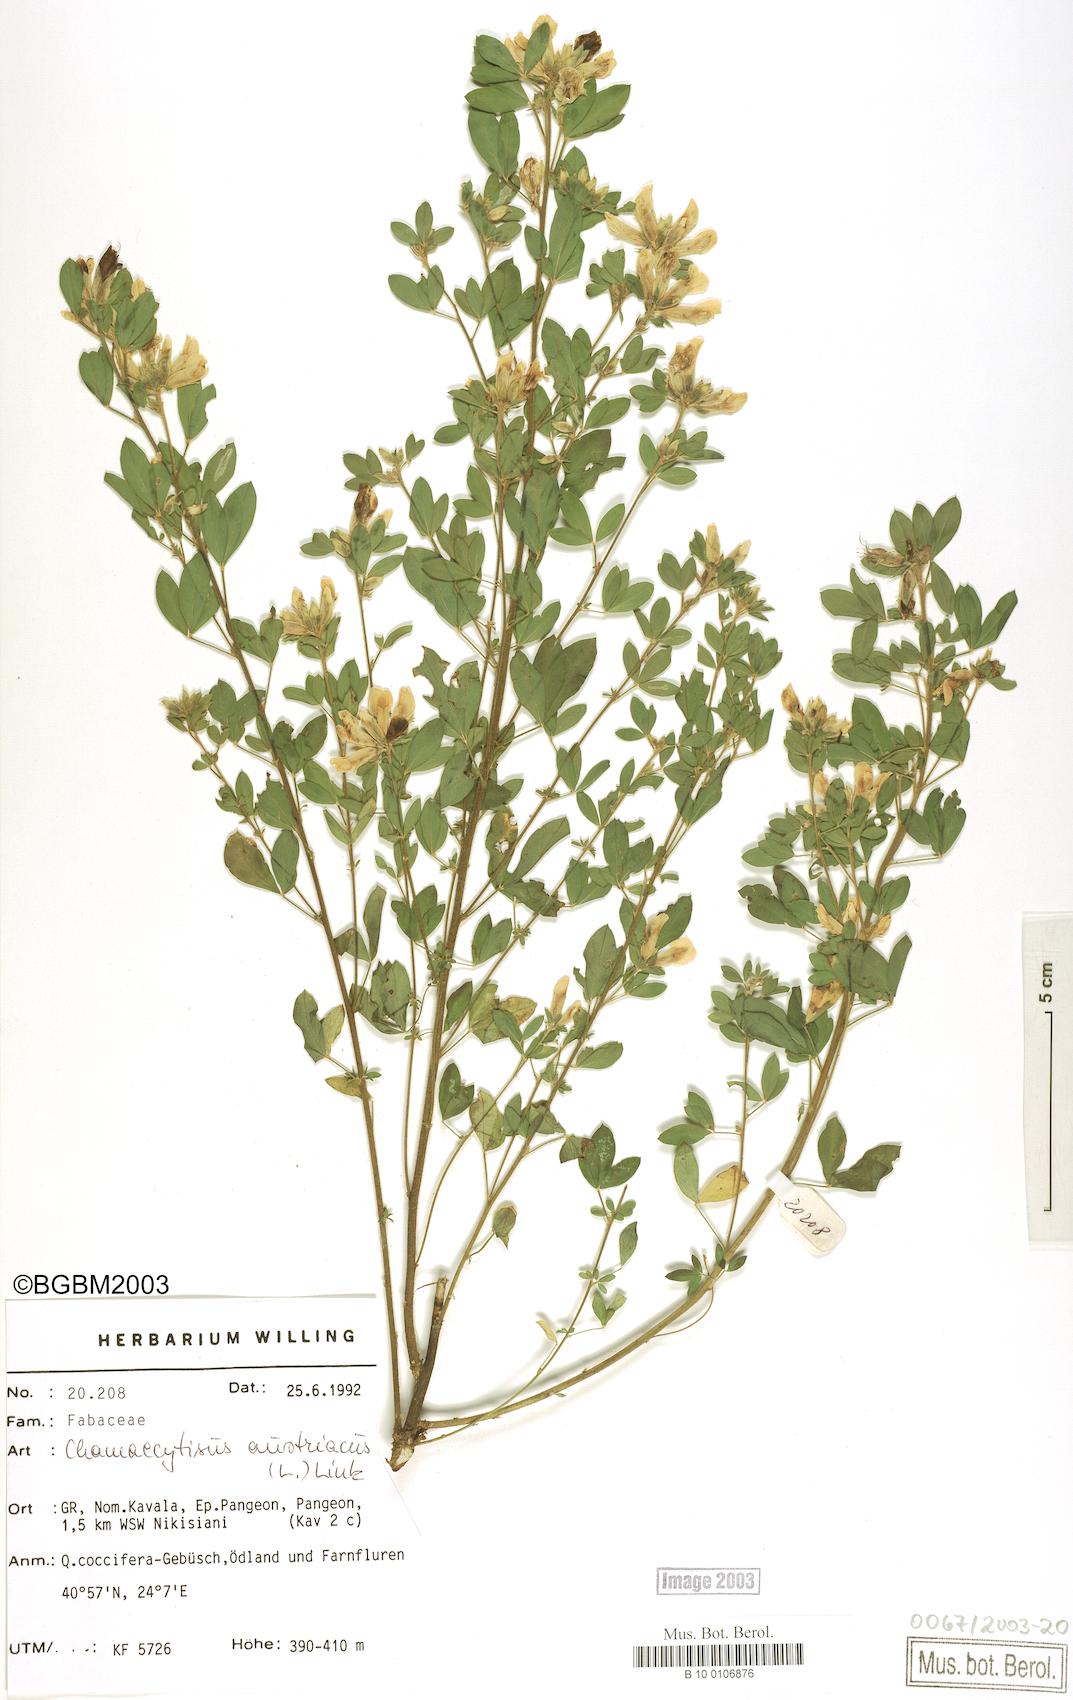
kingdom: Plantae
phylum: Tracheophyta
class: Magnoliopsida
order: Fabales
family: Fabaceae
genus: Chamaecytisus
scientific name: Chamaecytisus austriacus
